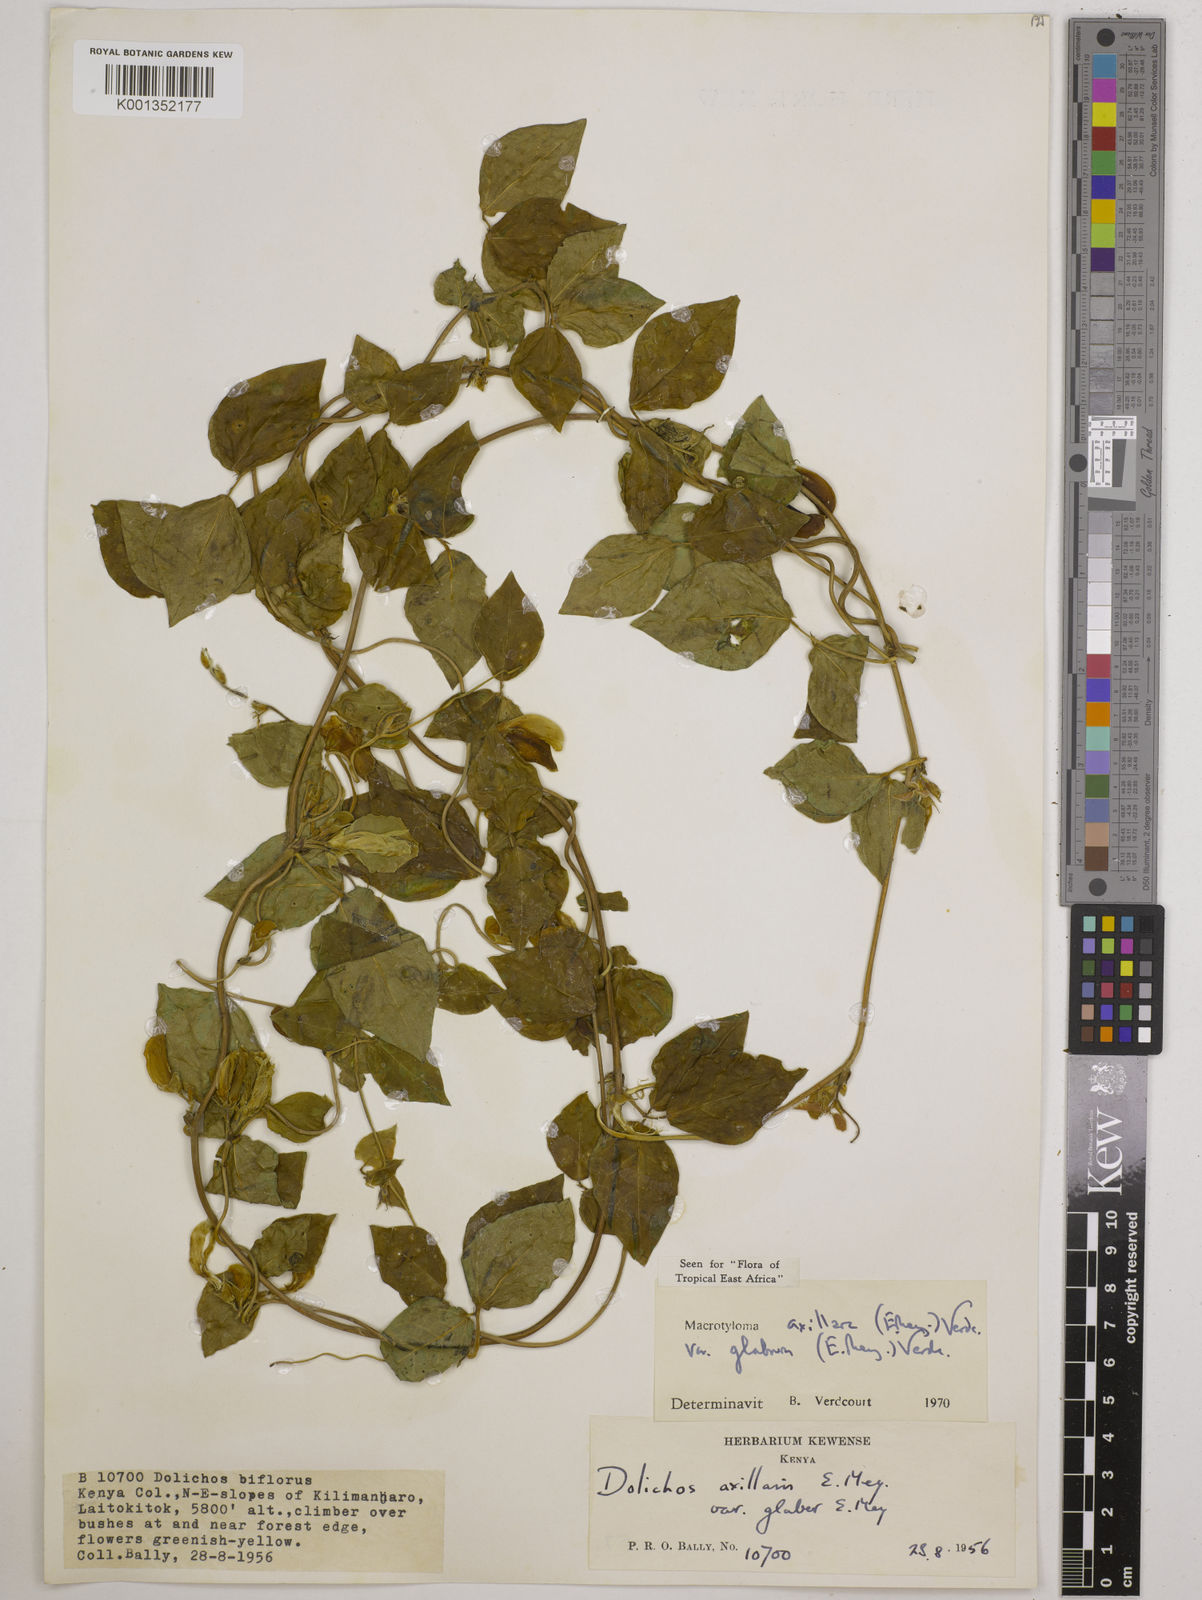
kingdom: Plantae
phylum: Tracheophyta
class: Magnoliopsida
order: Fabales
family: Fabaceae
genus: Macrotyloma
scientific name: Macrotyloma
